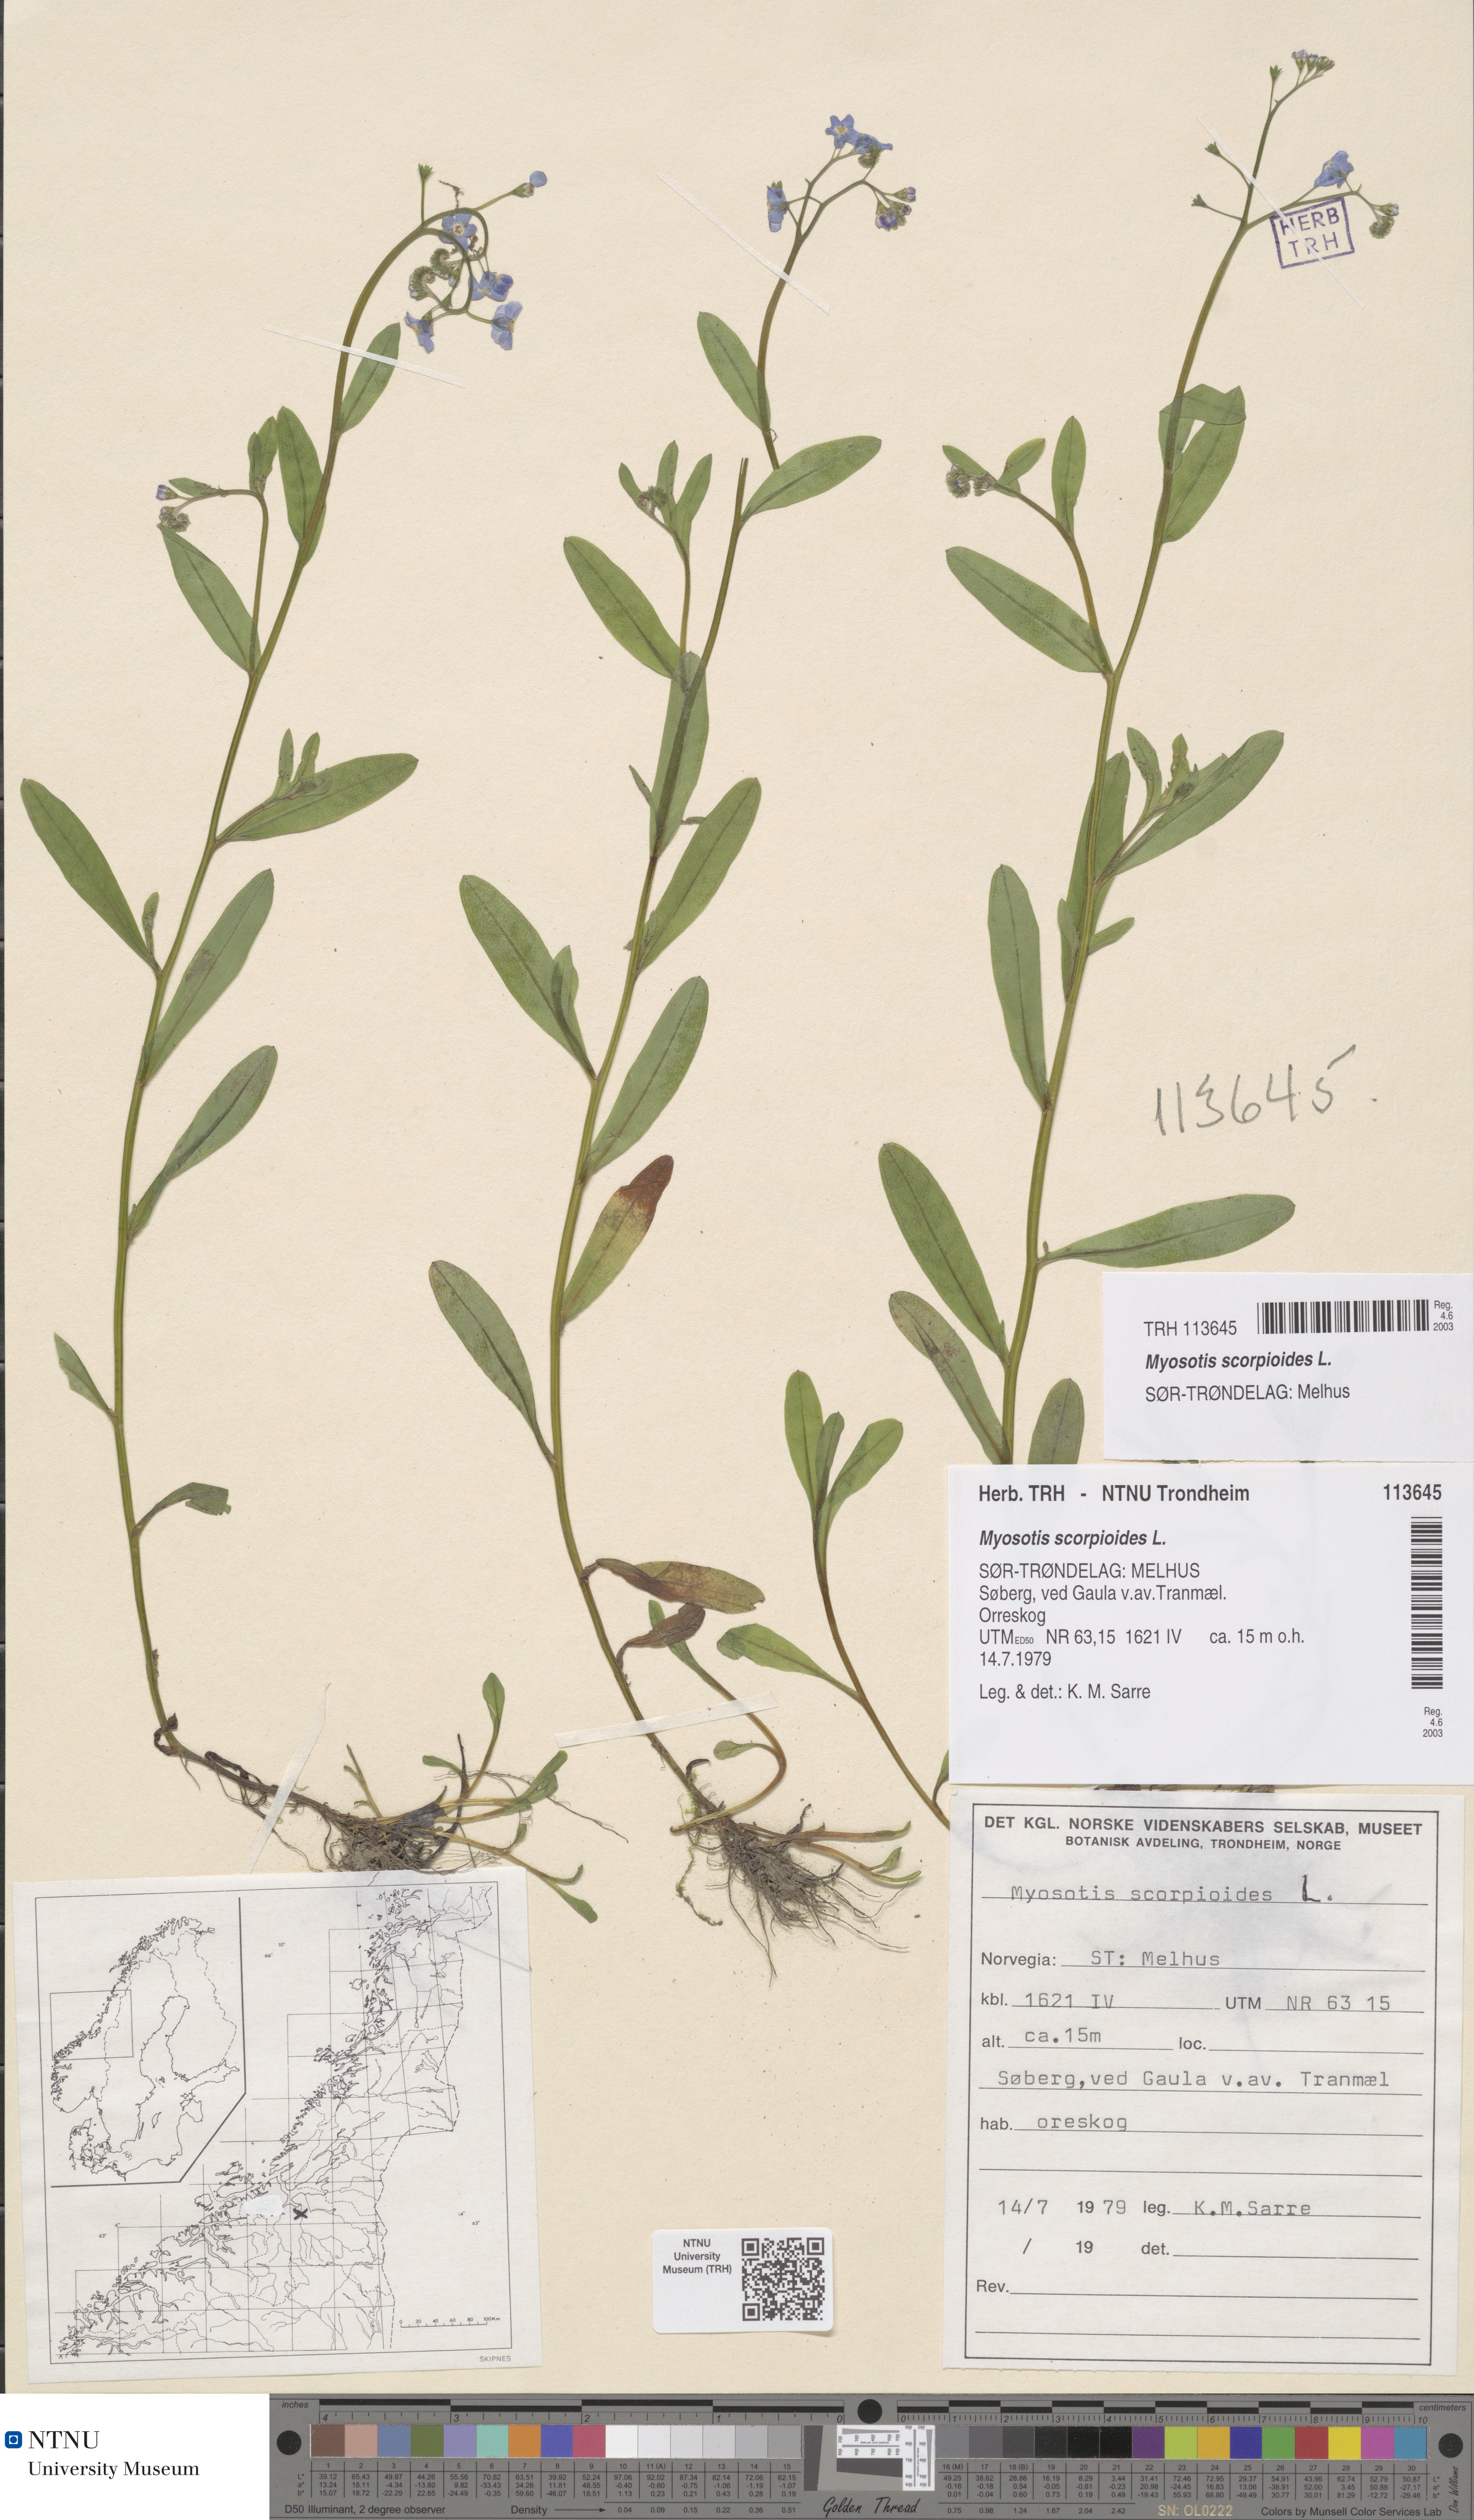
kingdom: Plantae
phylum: Tracheophyta
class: Magnoliopsida
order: Boraginales
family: Boraginaceae
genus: Myosotis
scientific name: Myosotis scorpioides
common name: Water forget-me-not
